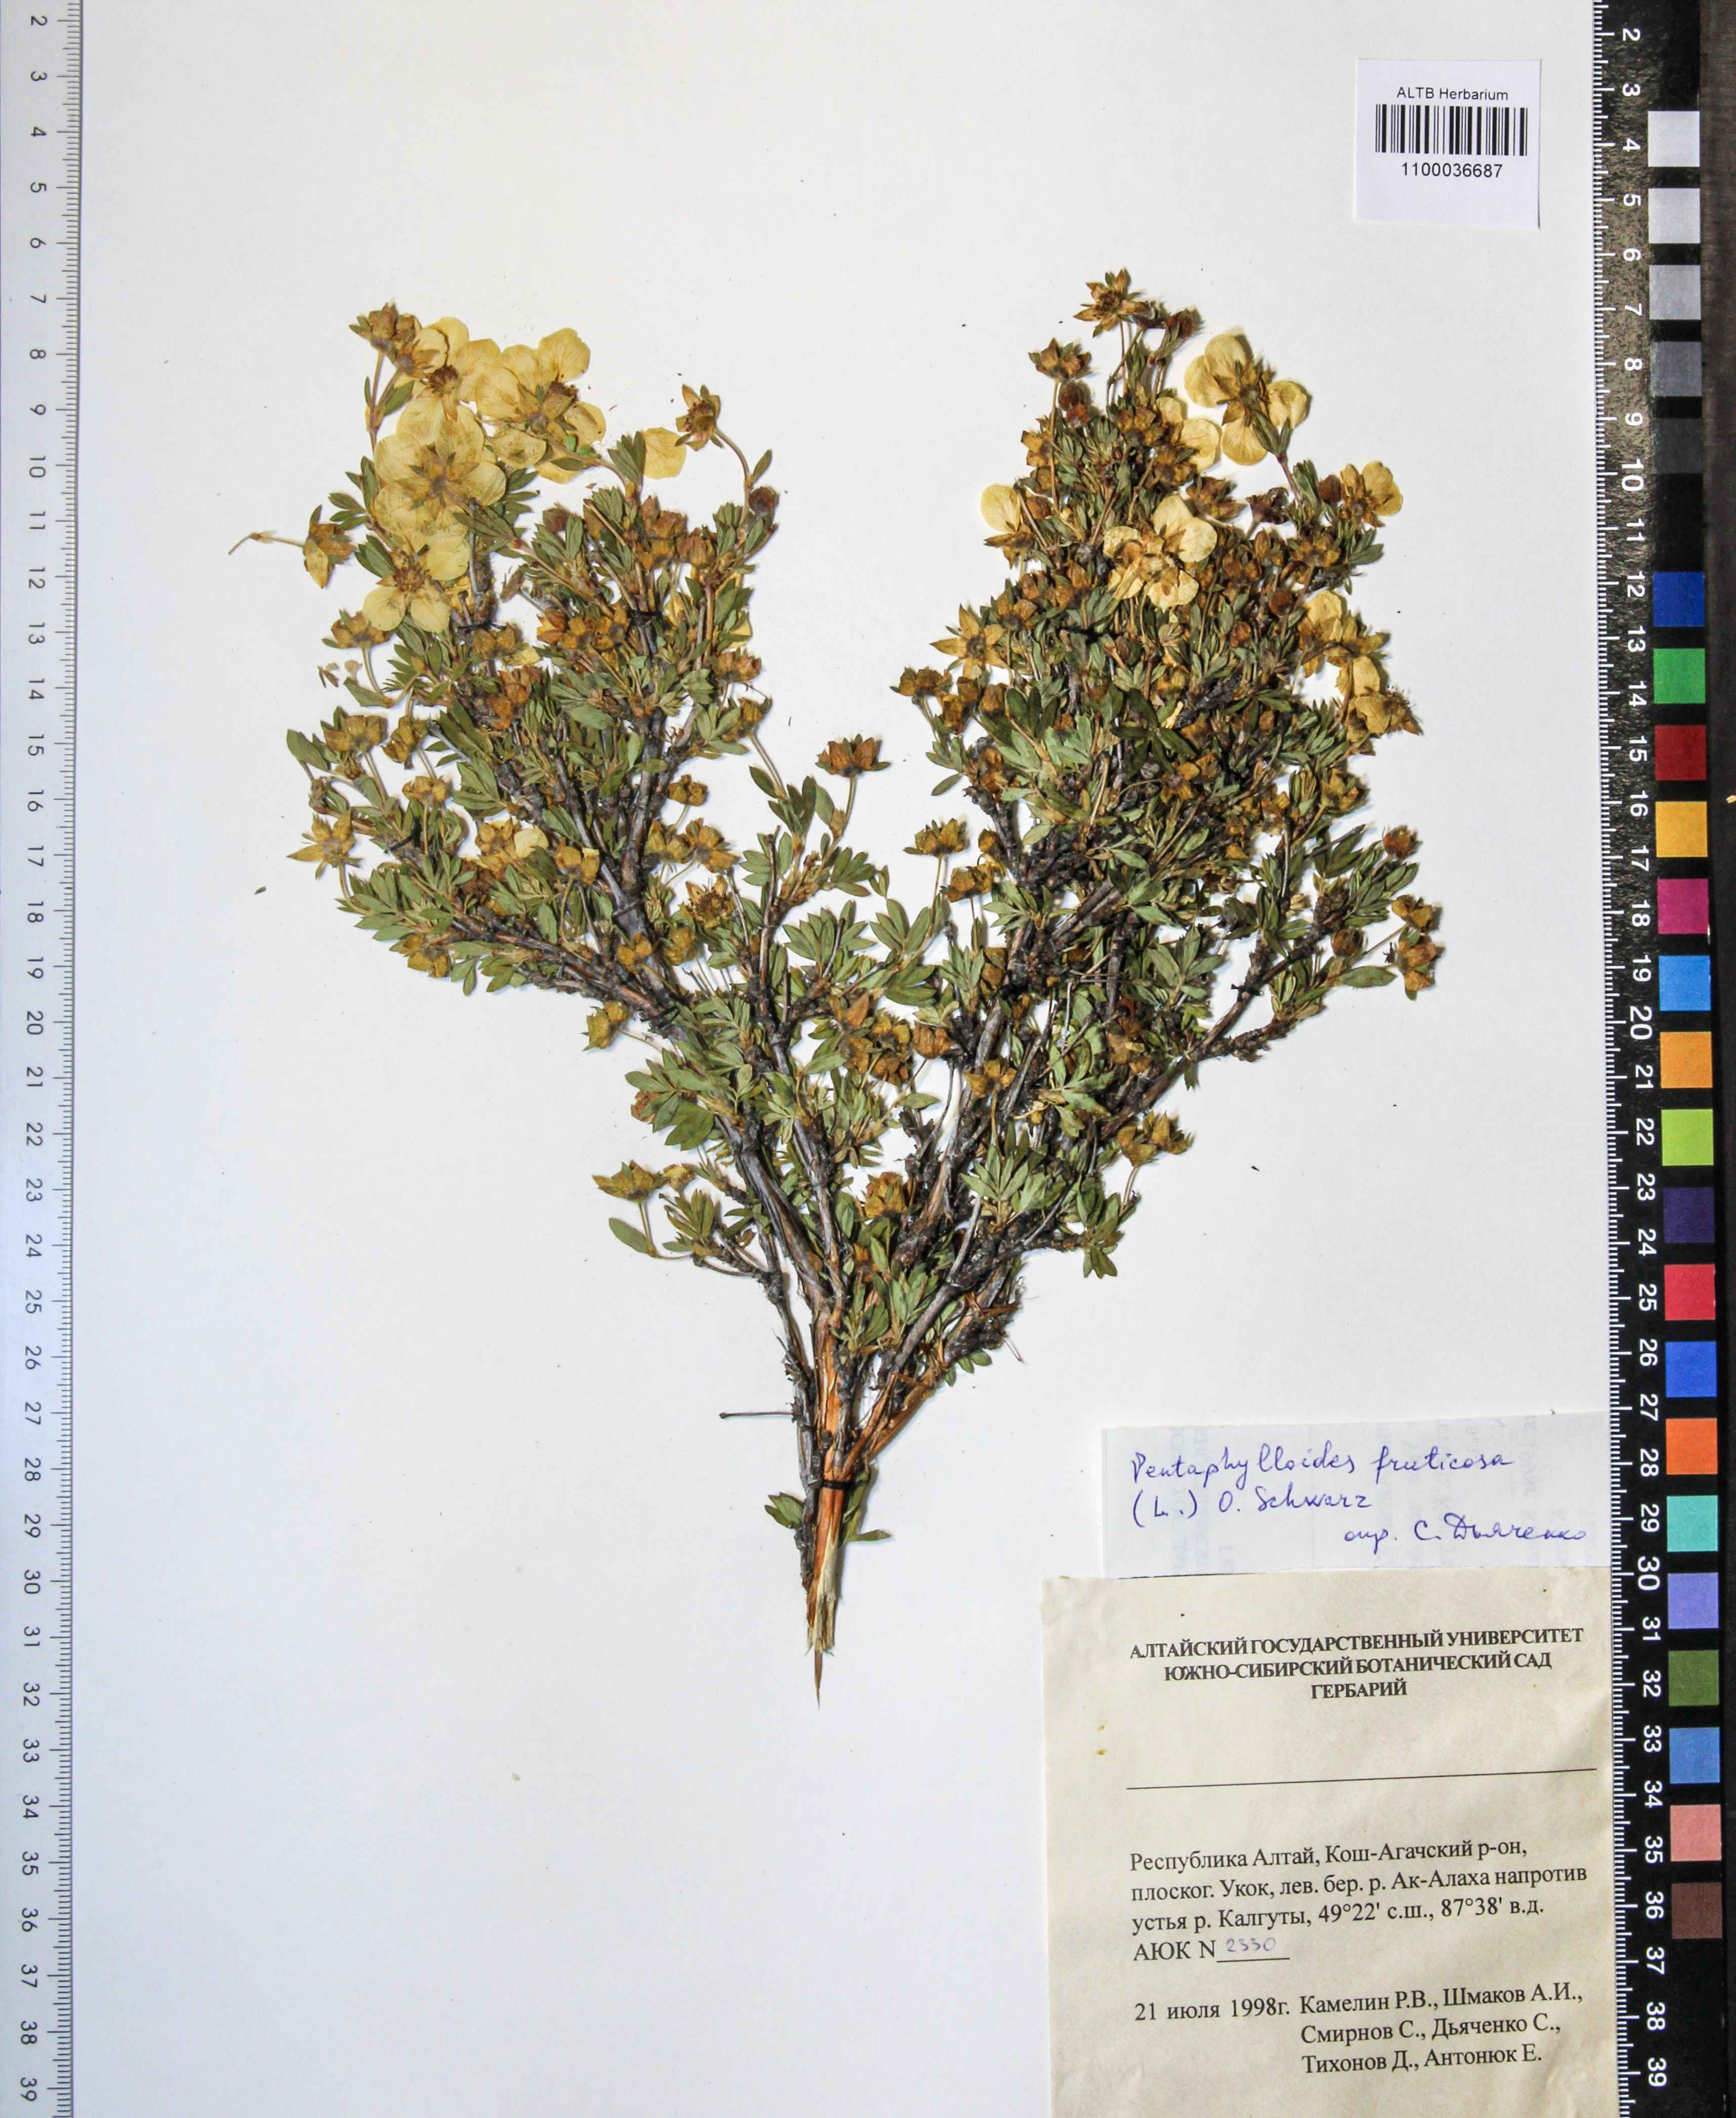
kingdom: Plantae
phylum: Tracheophyta
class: Magnoliopsida
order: Rosales
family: Rosaceae
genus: Dasiphora
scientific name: Dasiphora fruticosa
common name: Shrubby cinquefoil
